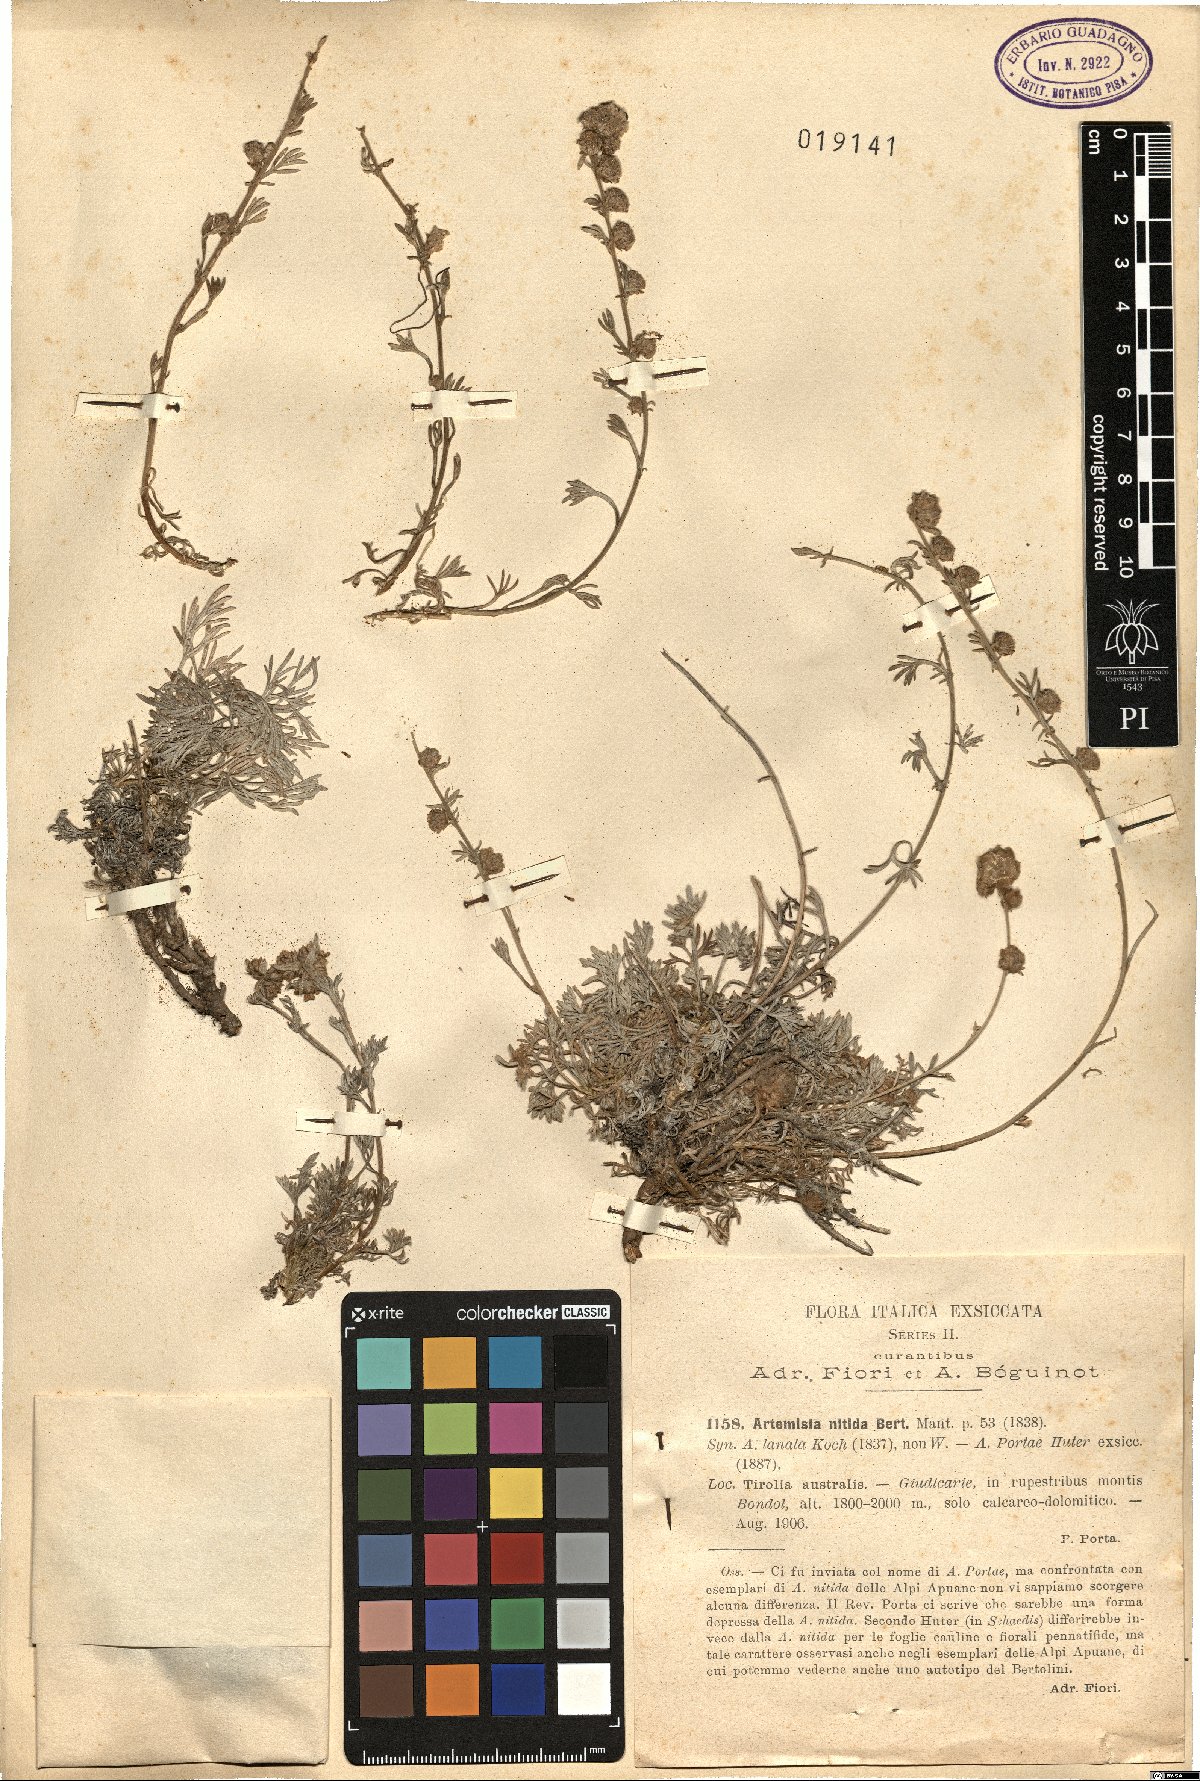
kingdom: Plantae
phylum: Tracheophyta
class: Magnoliopsida
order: Asterales
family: Asteraceae
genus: Artemisia
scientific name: Artemisia nitida
